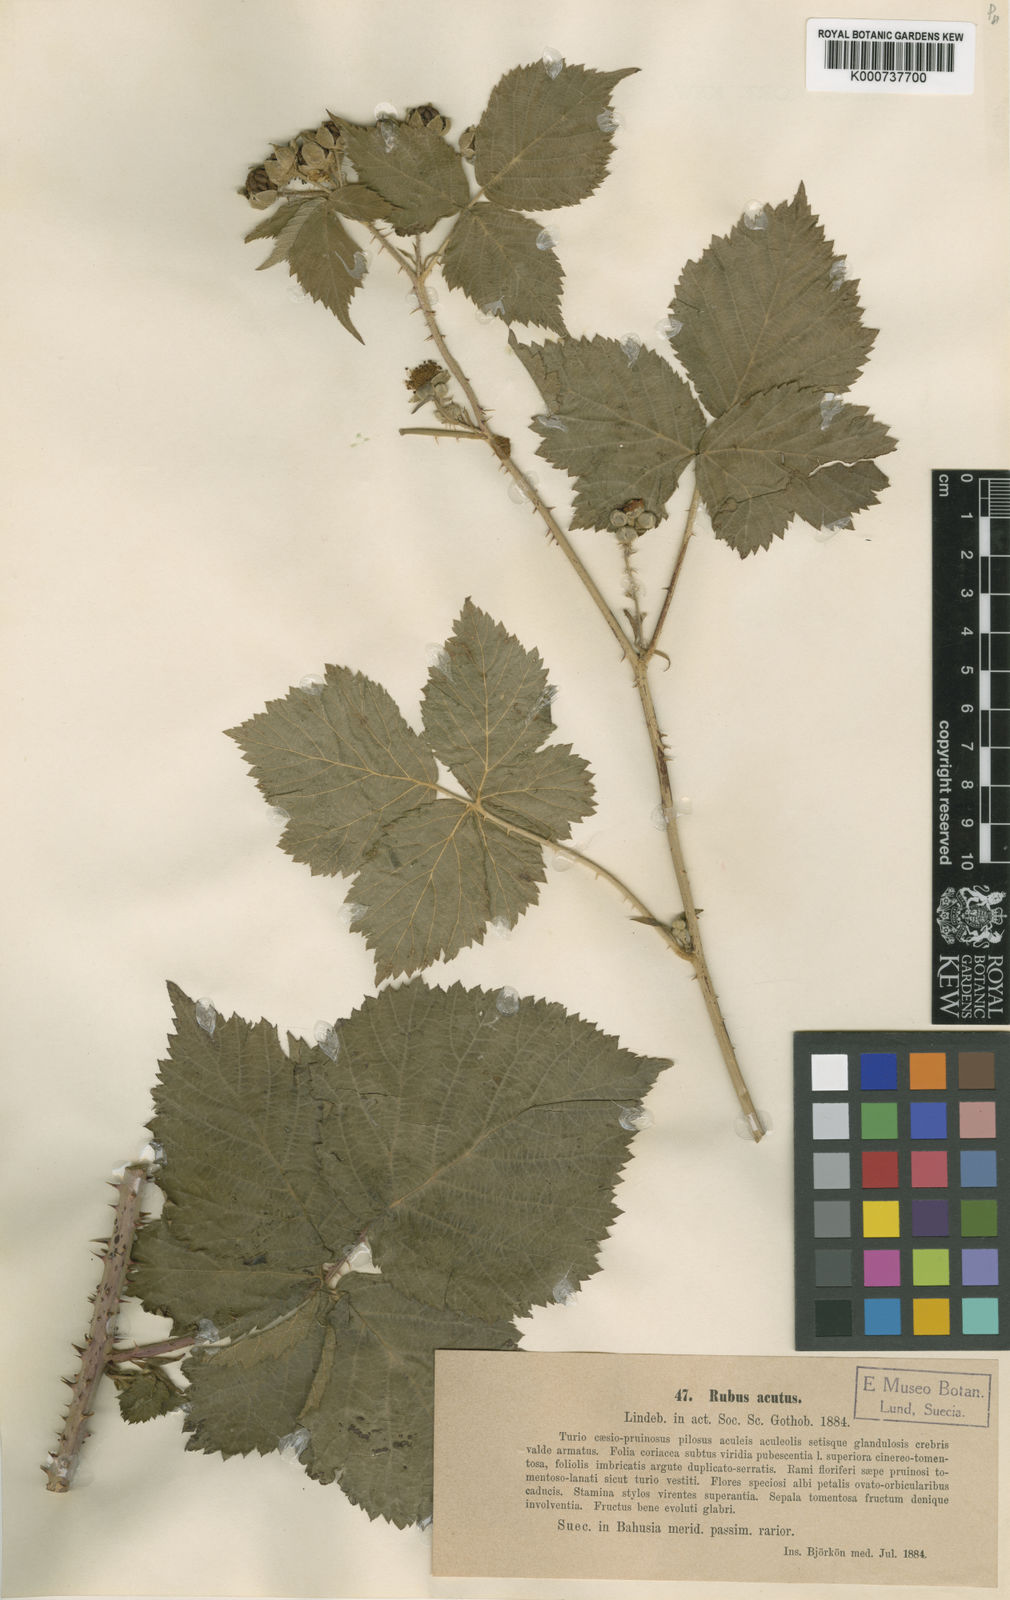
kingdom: Plantae
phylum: Tracheophyta
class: Magnoliopsida
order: Rosales
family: Rosaceae
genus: Rubus
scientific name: Rubus
